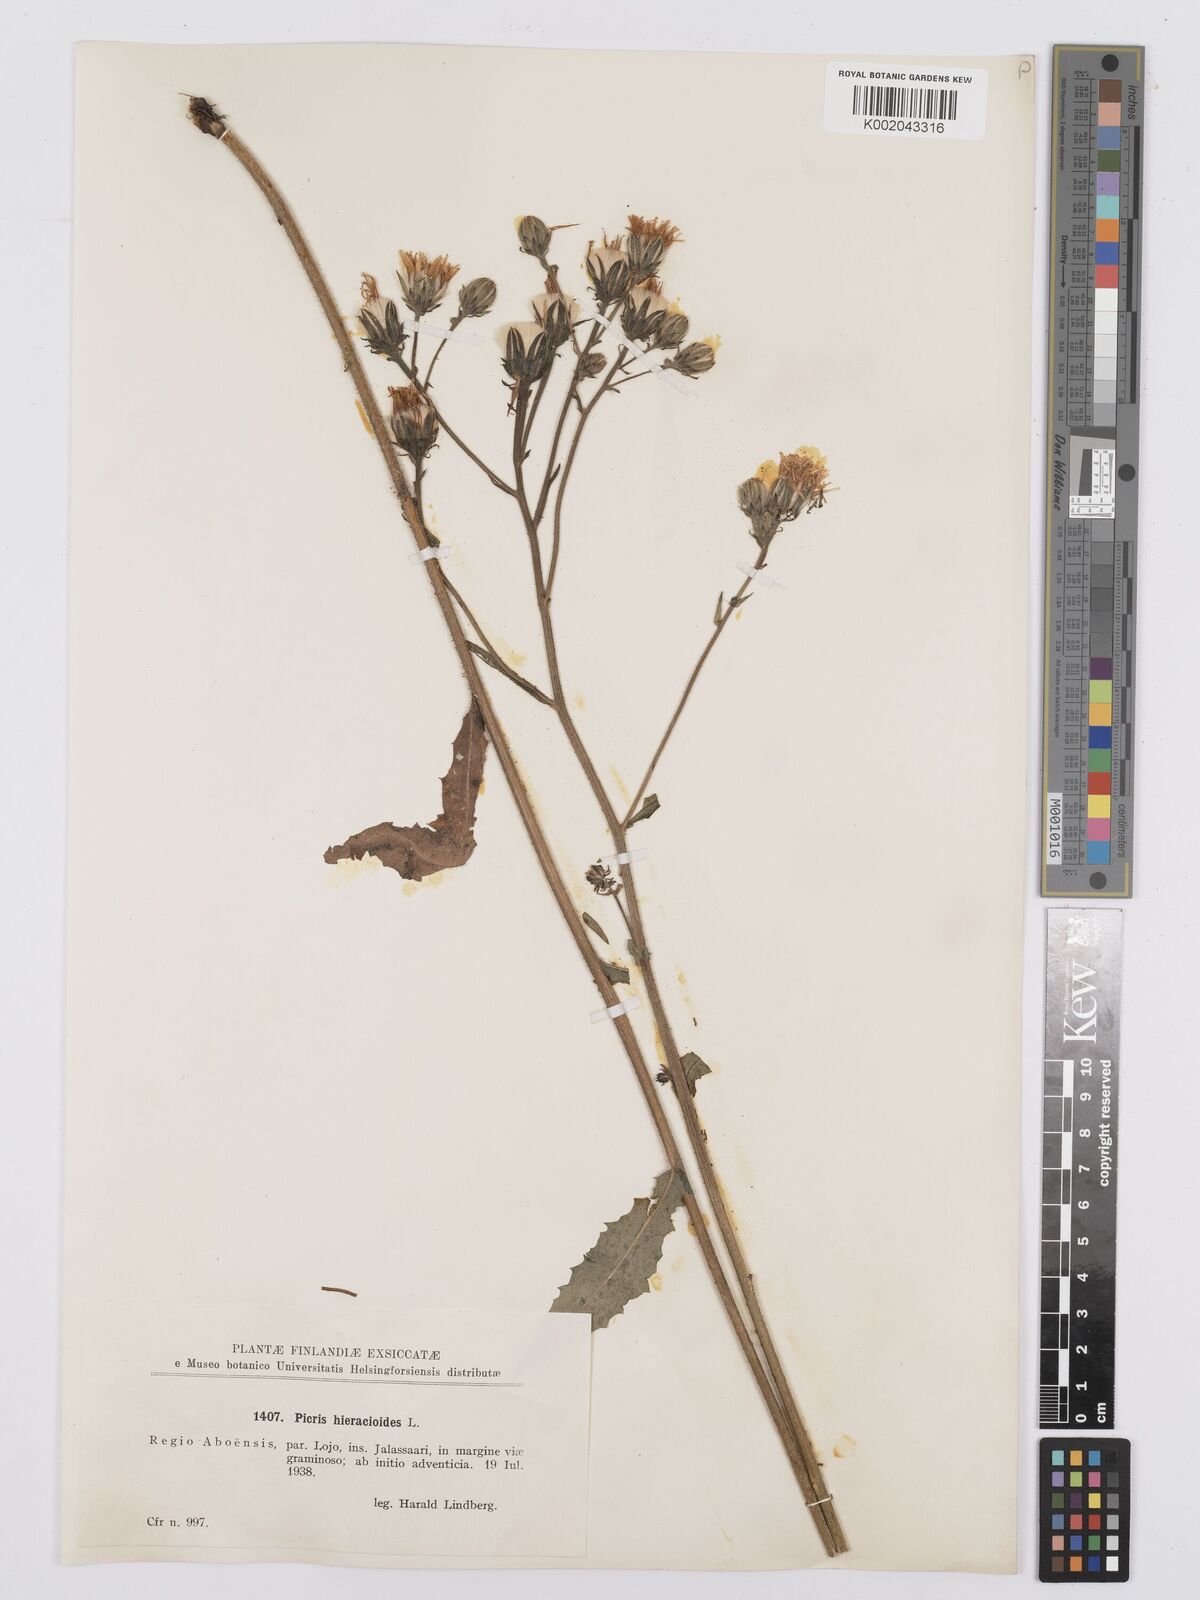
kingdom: Plantae
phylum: Tracheophyta
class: Magnoliopsida
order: Asterales
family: Asteraceae
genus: Picris
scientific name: Picris hieracioides
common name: Hawkweed oxtongue
